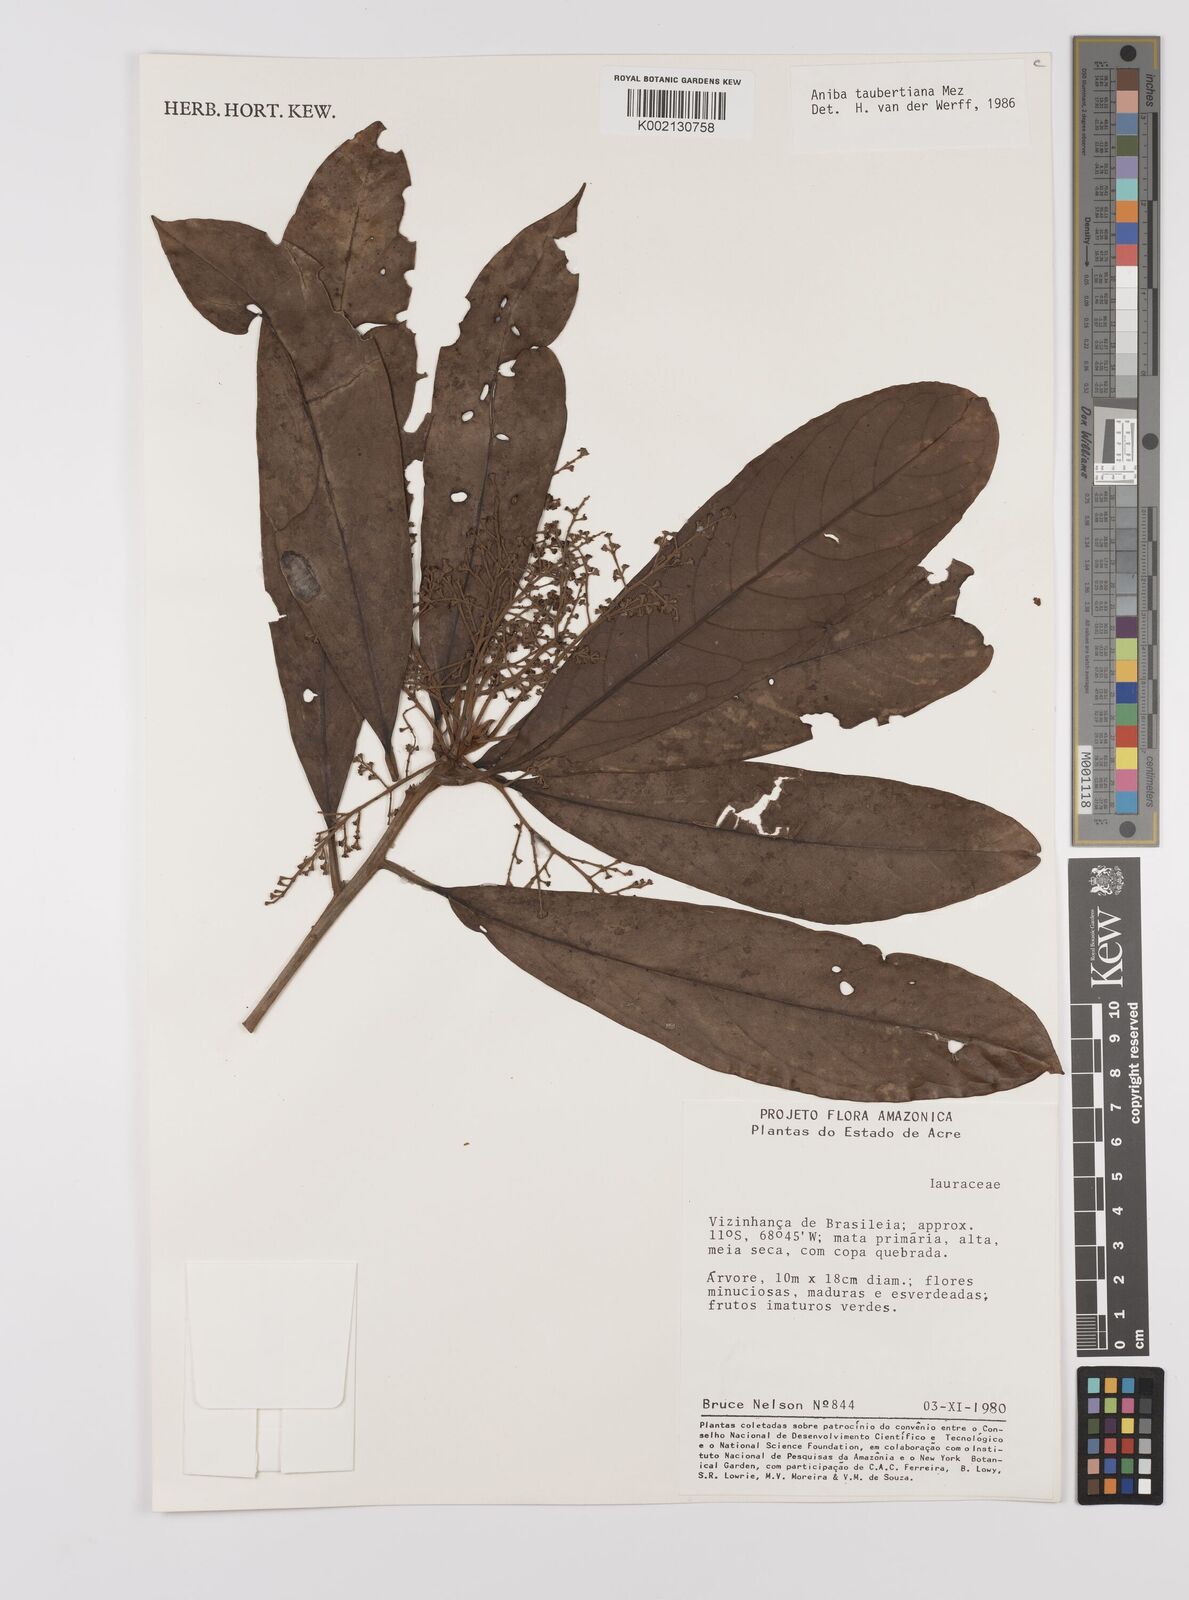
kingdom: Plantae
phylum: Tracheophyta
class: Magnoliopsida
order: Laurales
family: Lauraceae
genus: Aniba
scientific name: Aniba taubertiana
